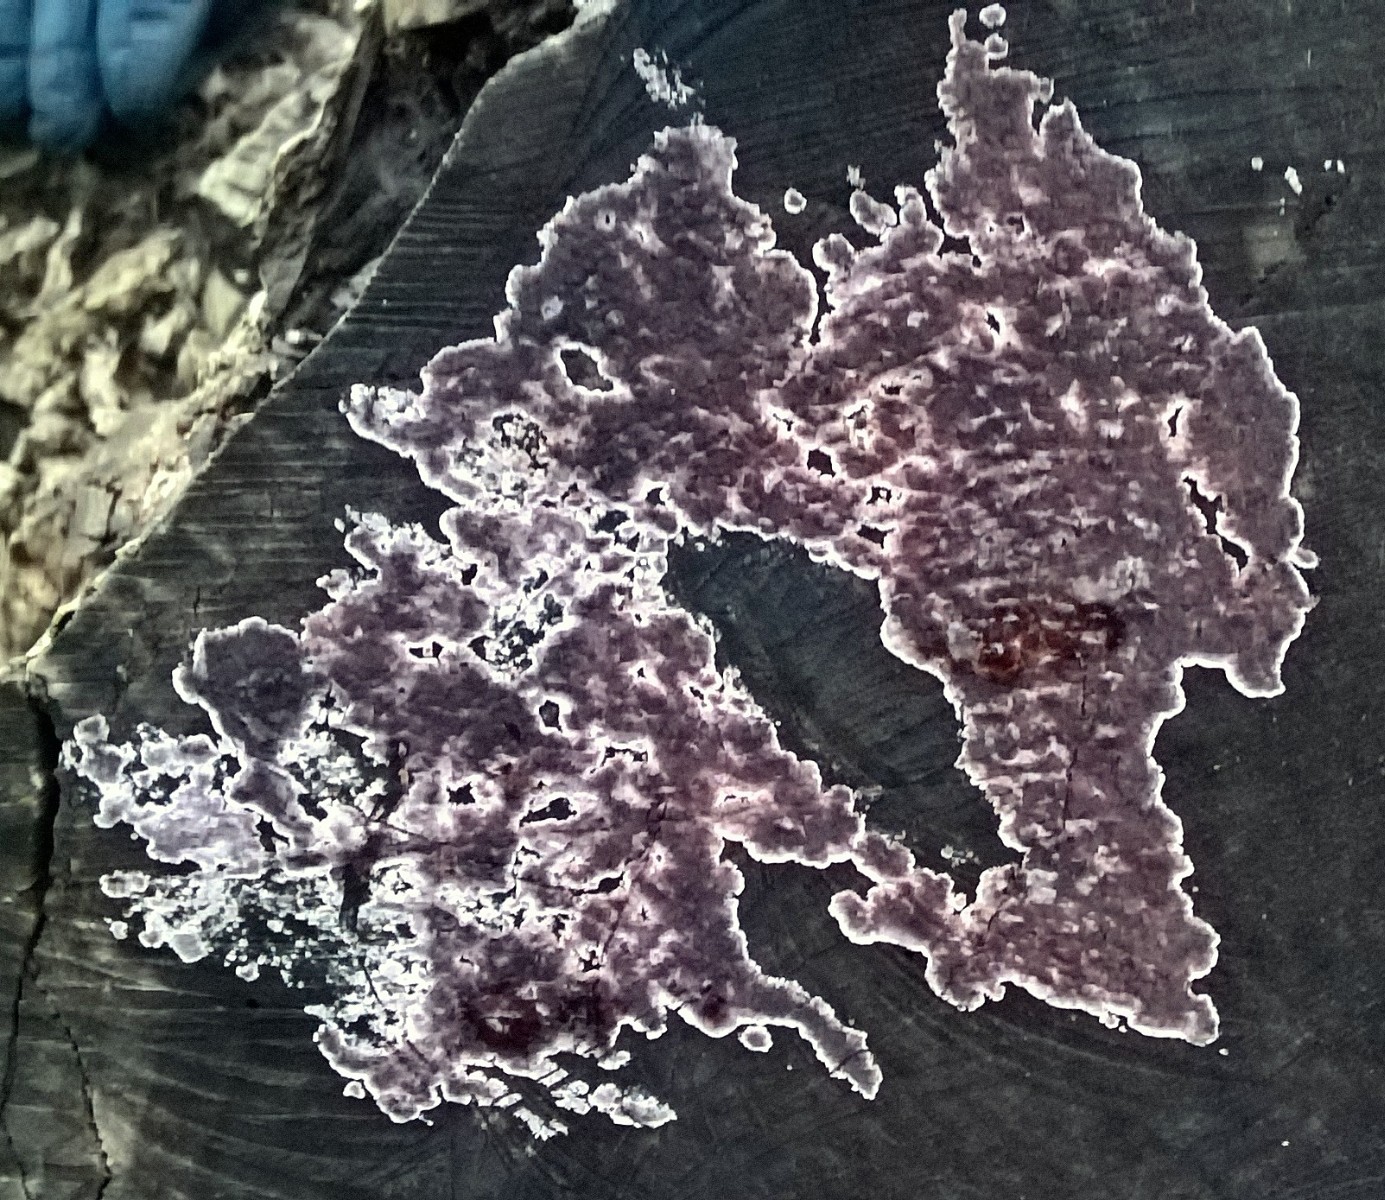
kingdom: Fungi
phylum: Basidiomycota
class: Agaricomycetes
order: Agaricales
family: Cyphellaceae
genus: Chondrostereum
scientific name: Chondrostereum purpureum
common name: purpurlædersvamp
